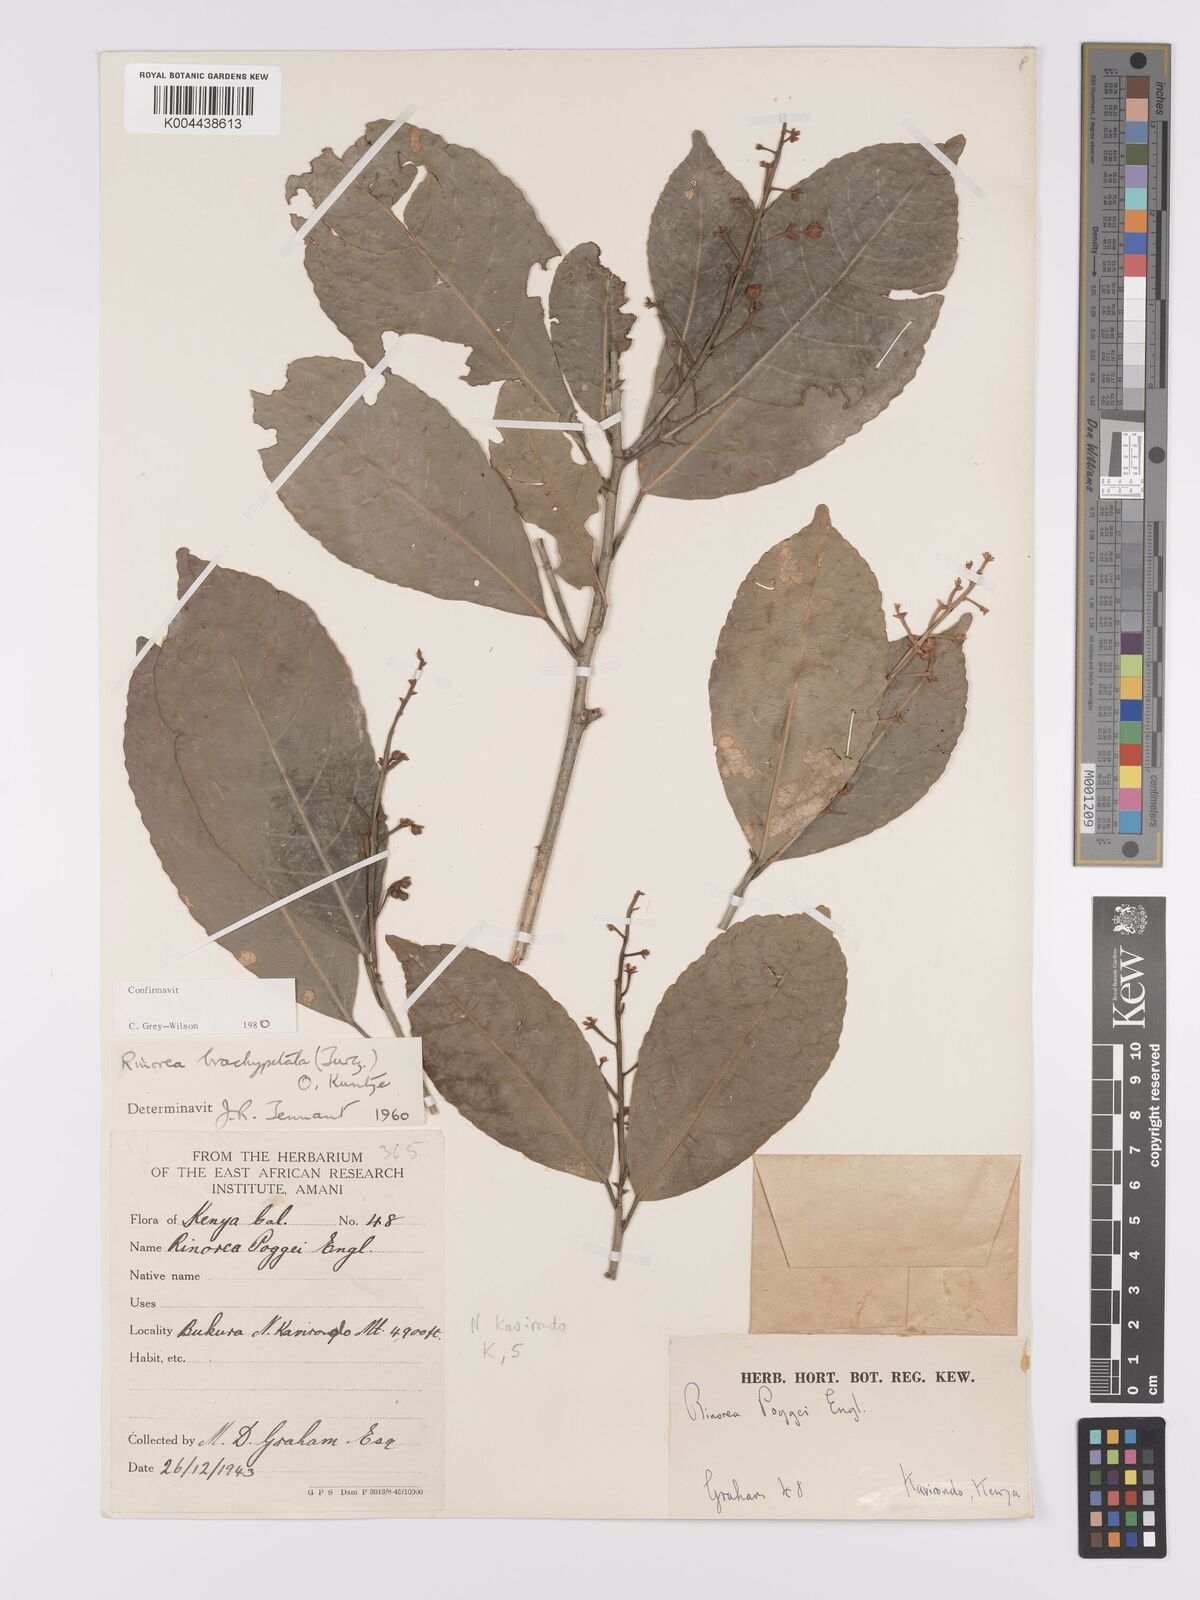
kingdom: Plantae
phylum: Tracheophyta
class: Magnoliopsida
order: Malpighiales
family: Violaceae
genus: Rinorea
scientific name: Rinorea brachypetala
